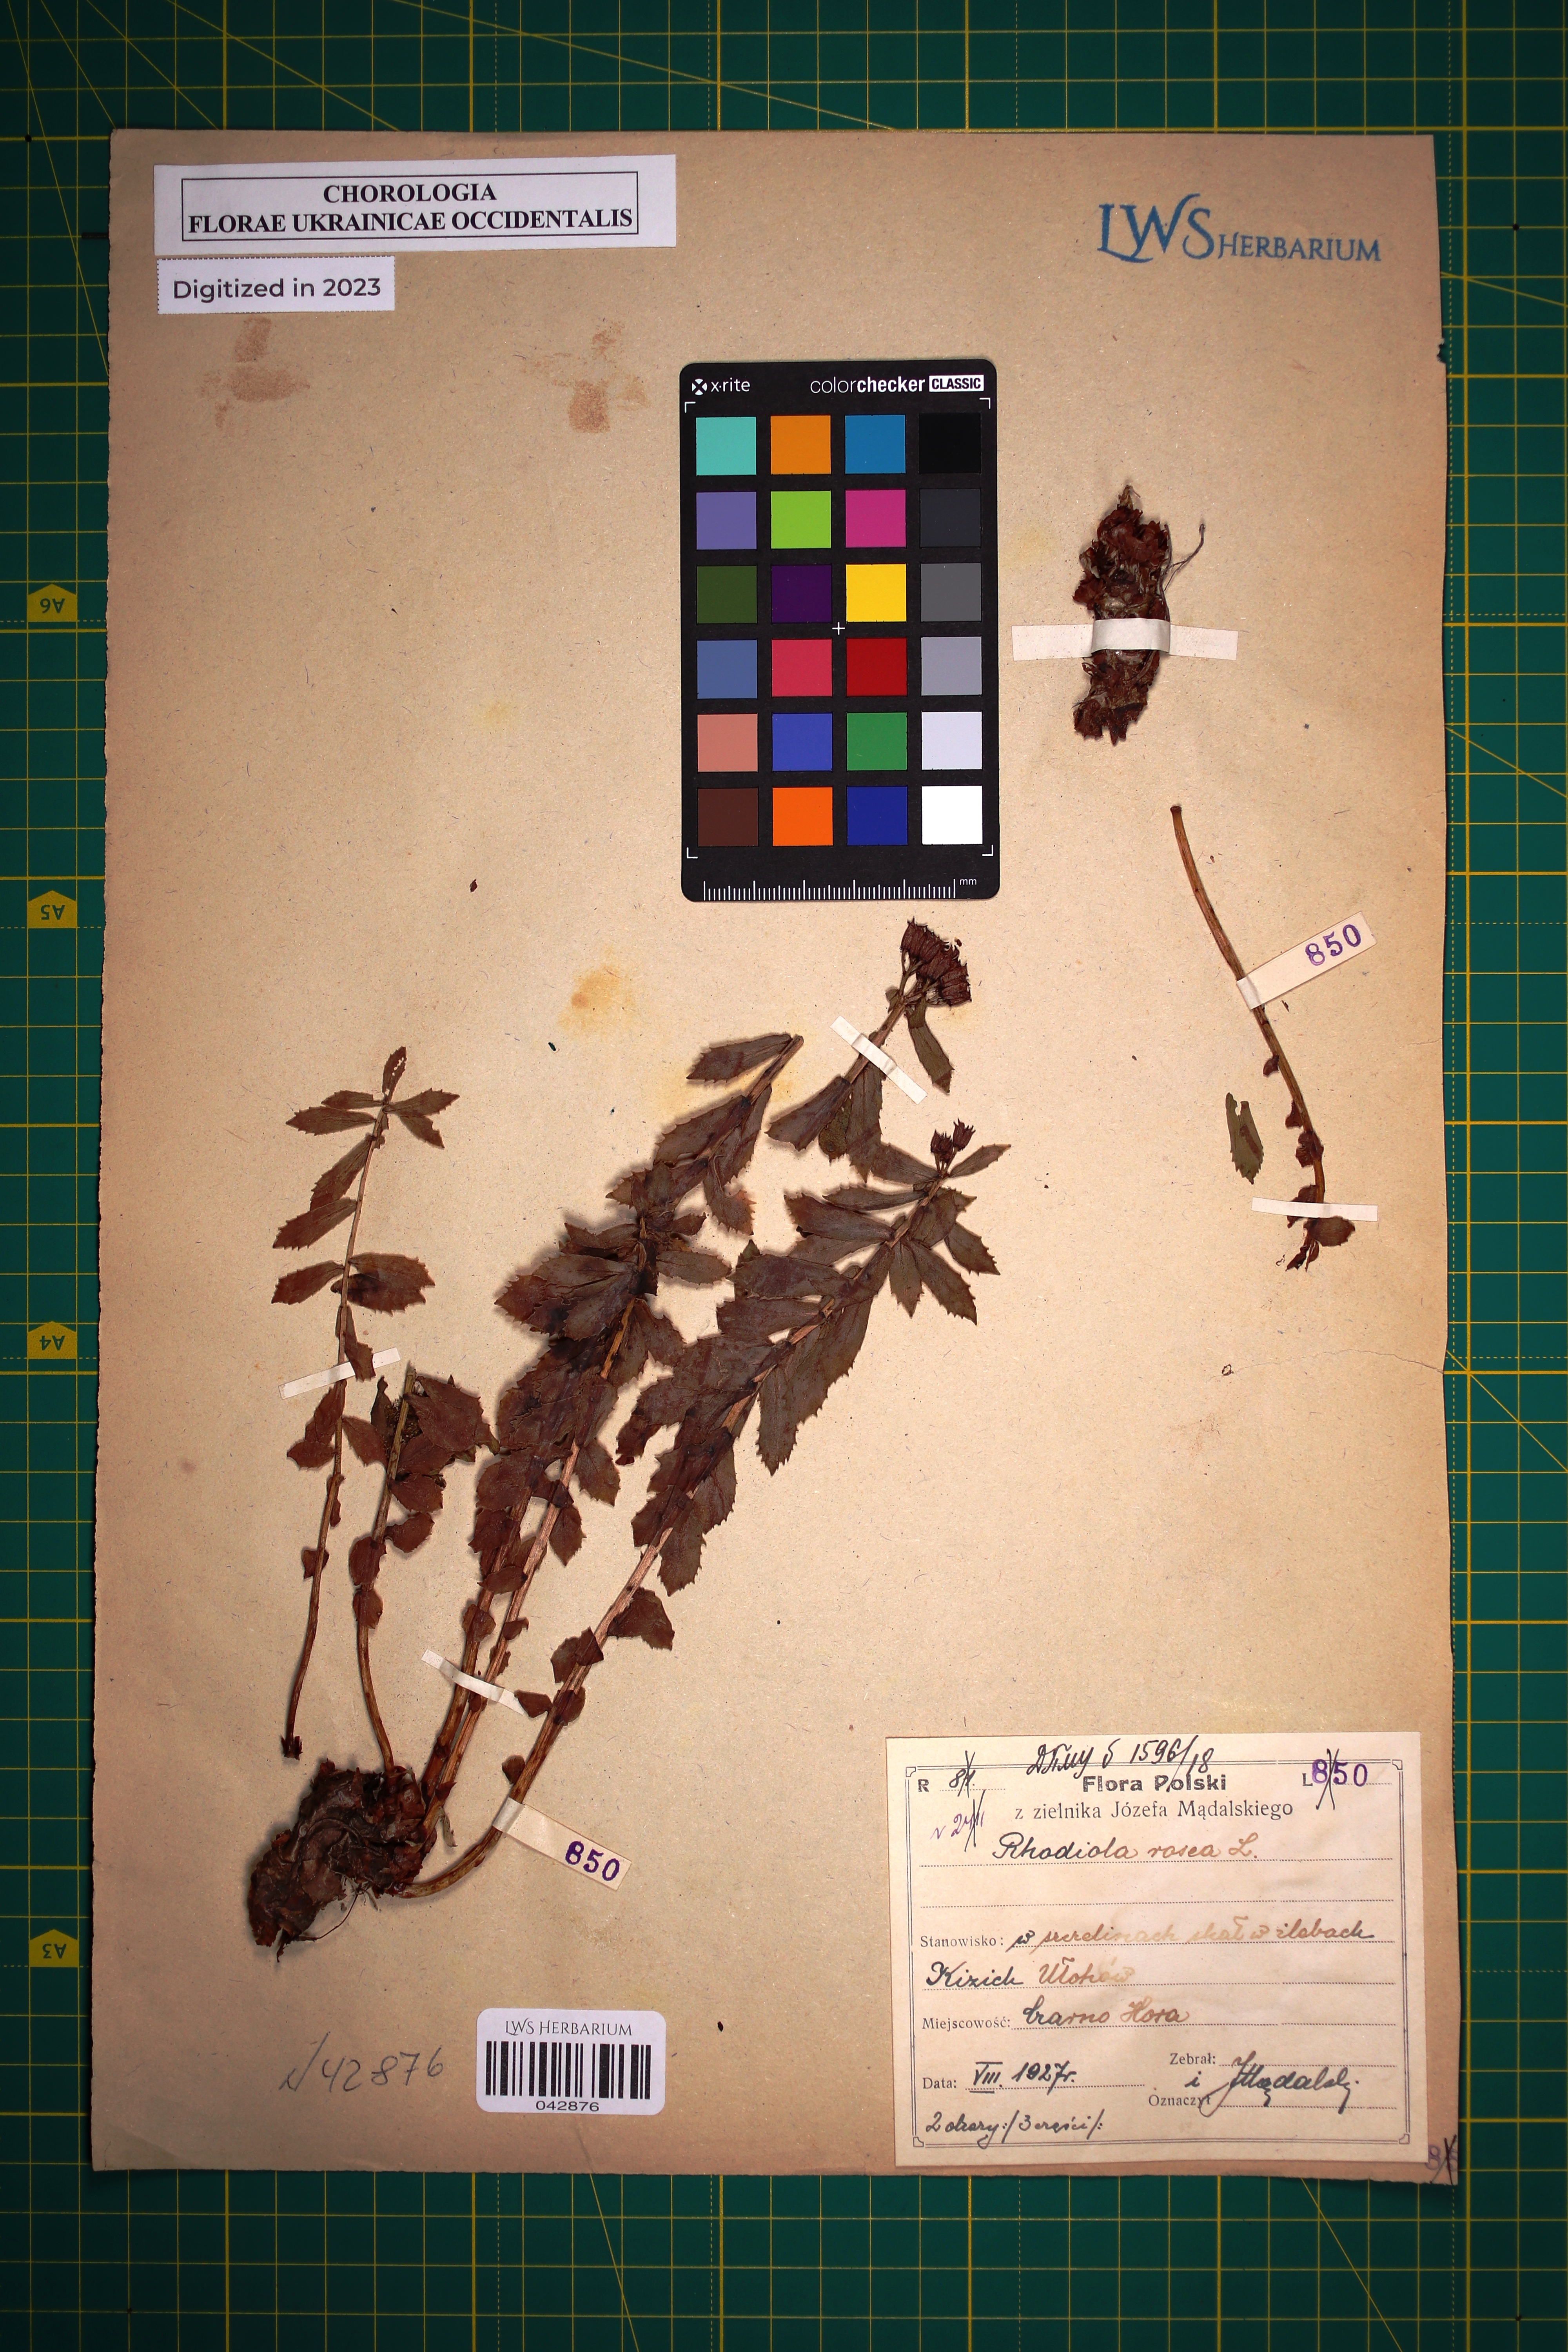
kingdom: Plantae
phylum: Tracheophyta
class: Magnoliopsida
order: Saxifragales
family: Crassulaceae
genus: Rhodiola
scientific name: Rhodiola rosea
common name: Roseroot
